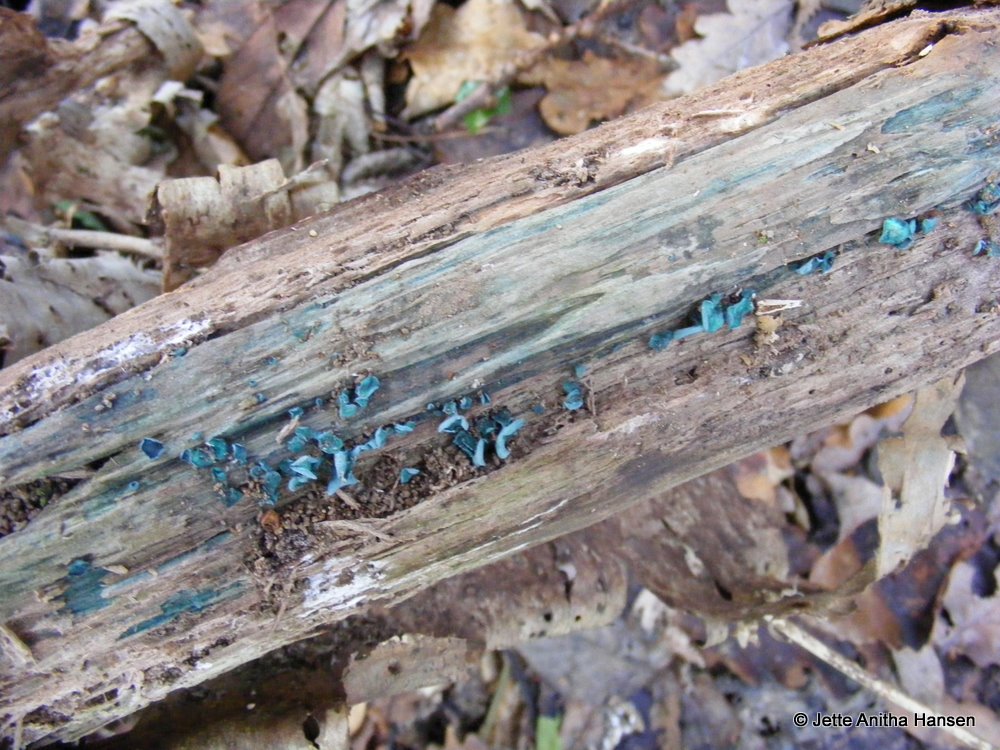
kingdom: Fungi
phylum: Ascomycota
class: Leotiomycetes
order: Helotiales
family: Chlorociboriaceae
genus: Chlorociboria
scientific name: Chlorociboria aeruginascens
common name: almindelig grønskive
